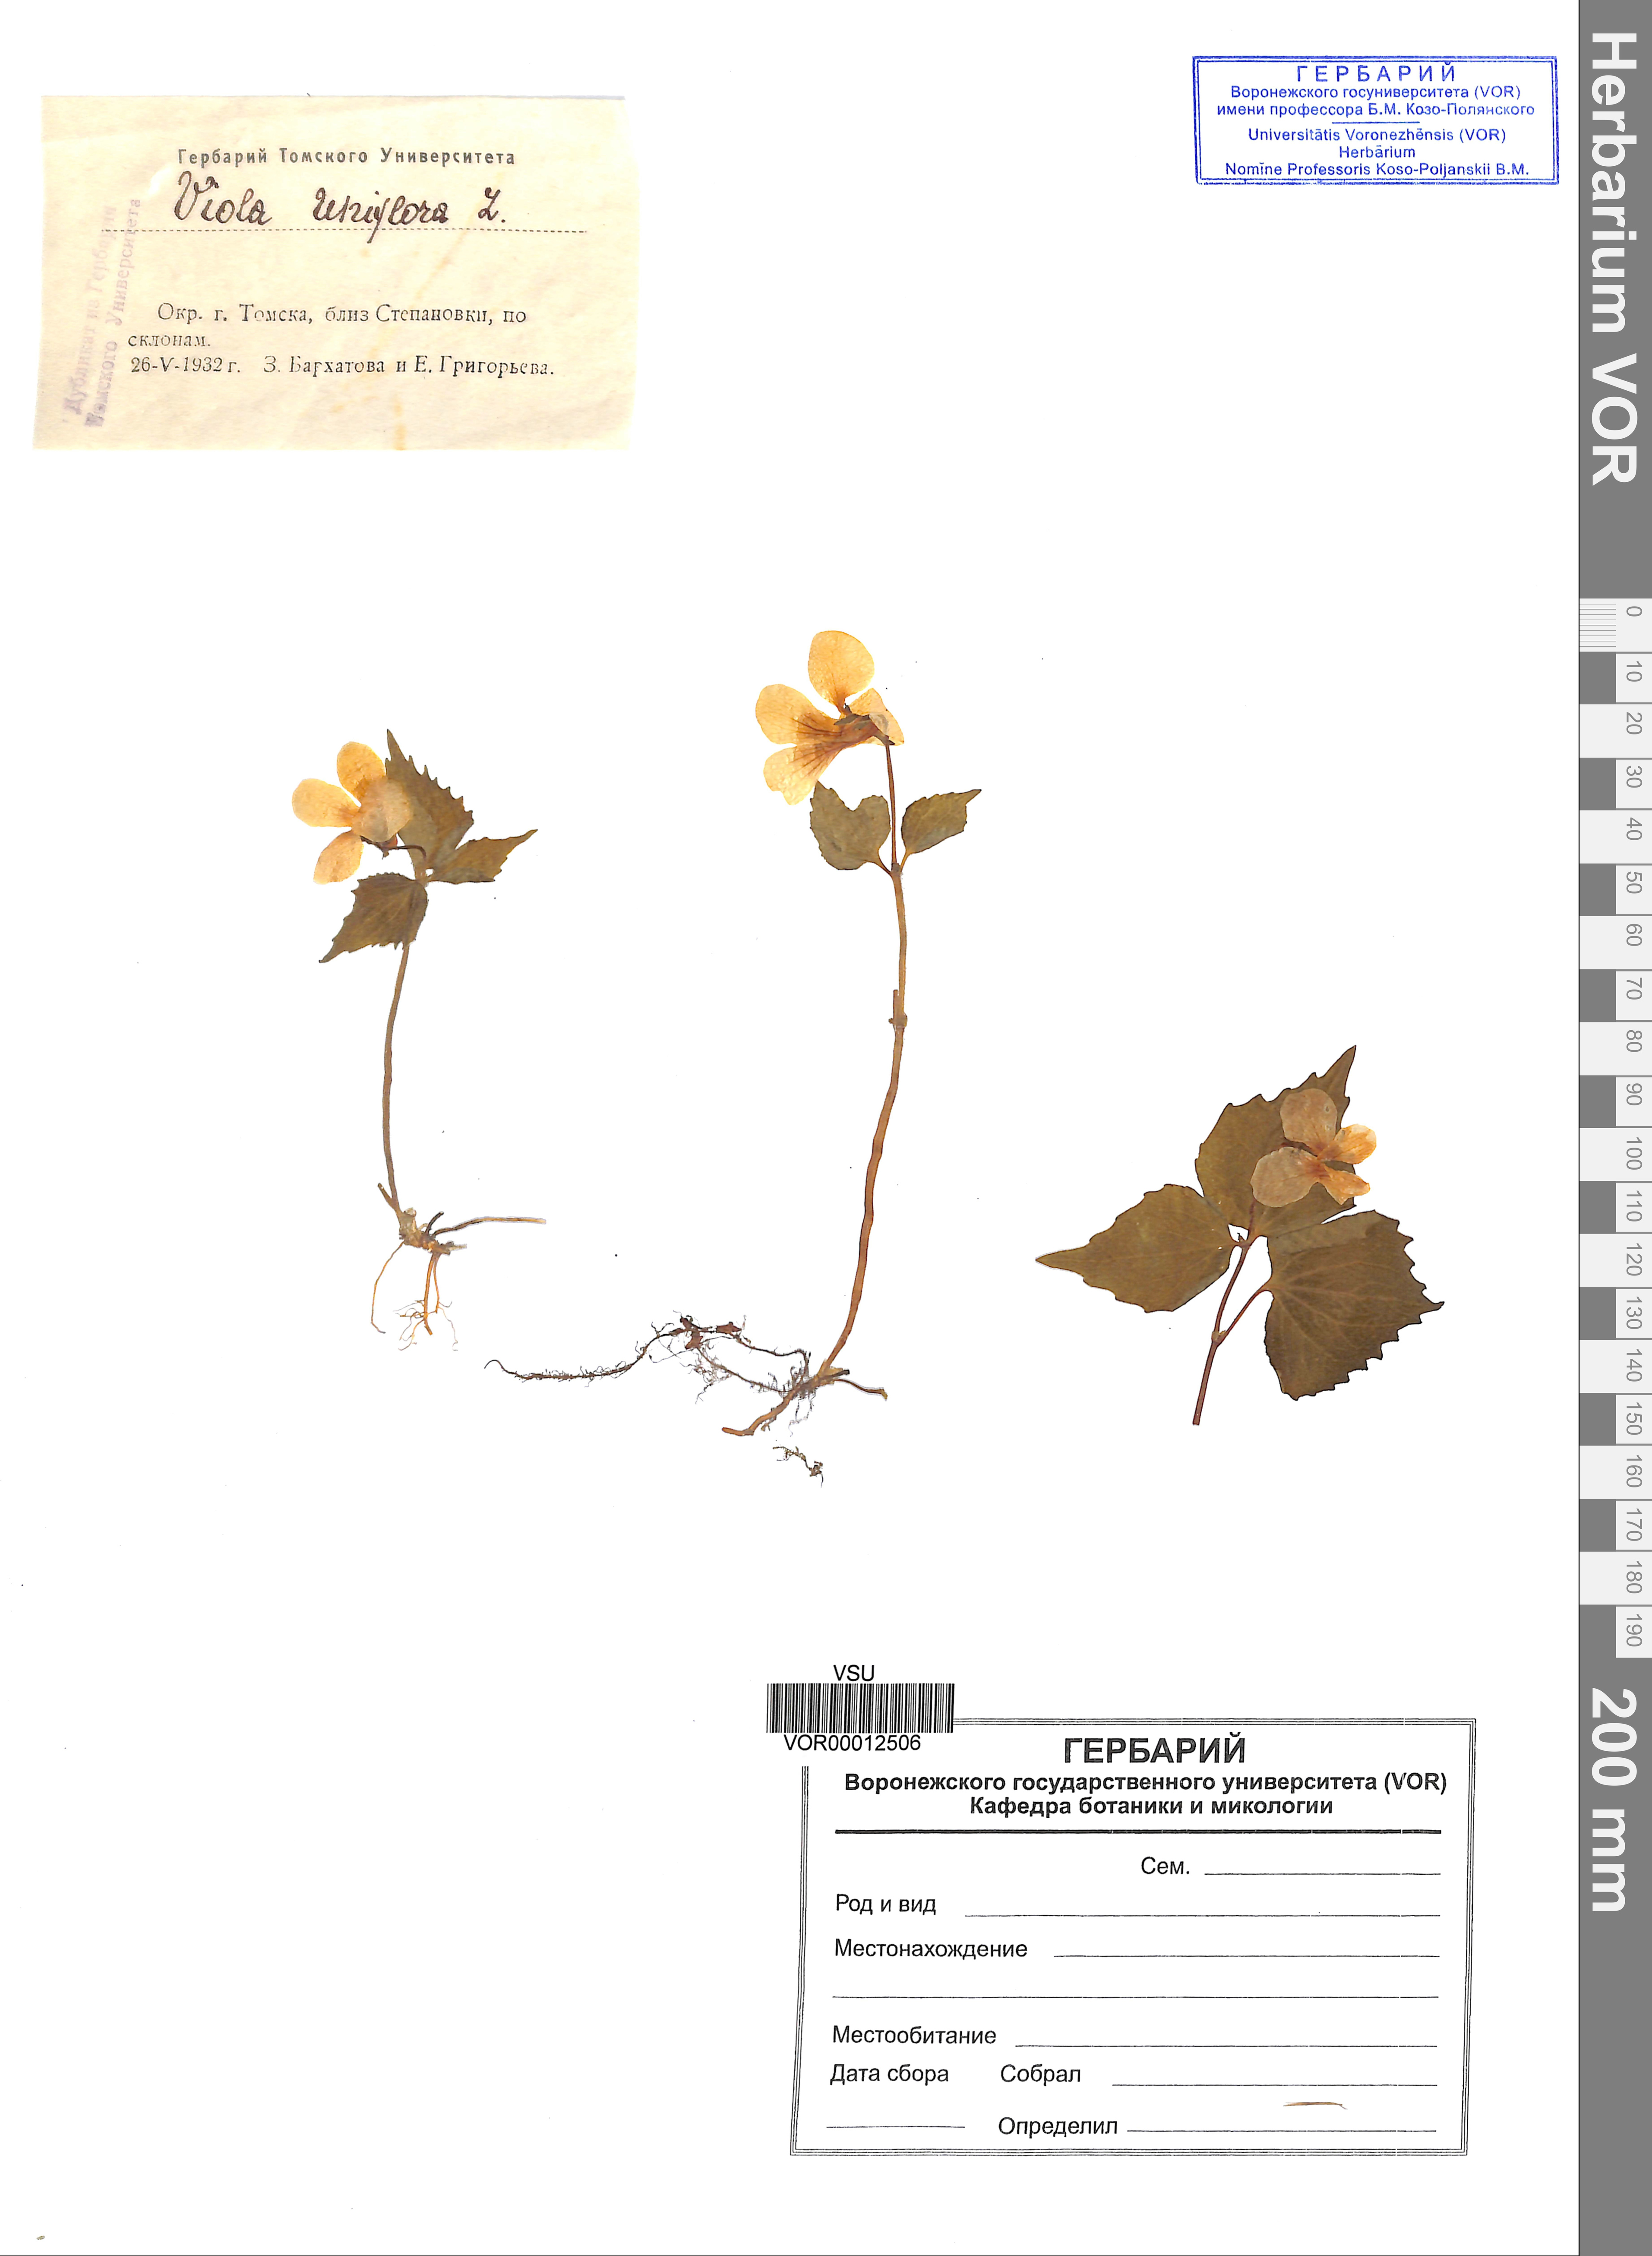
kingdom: Plantae
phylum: Tracheophyta
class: Magnoliopsida
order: Malpighiales
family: Violaceae
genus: Viola
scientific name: Viola uniflora
